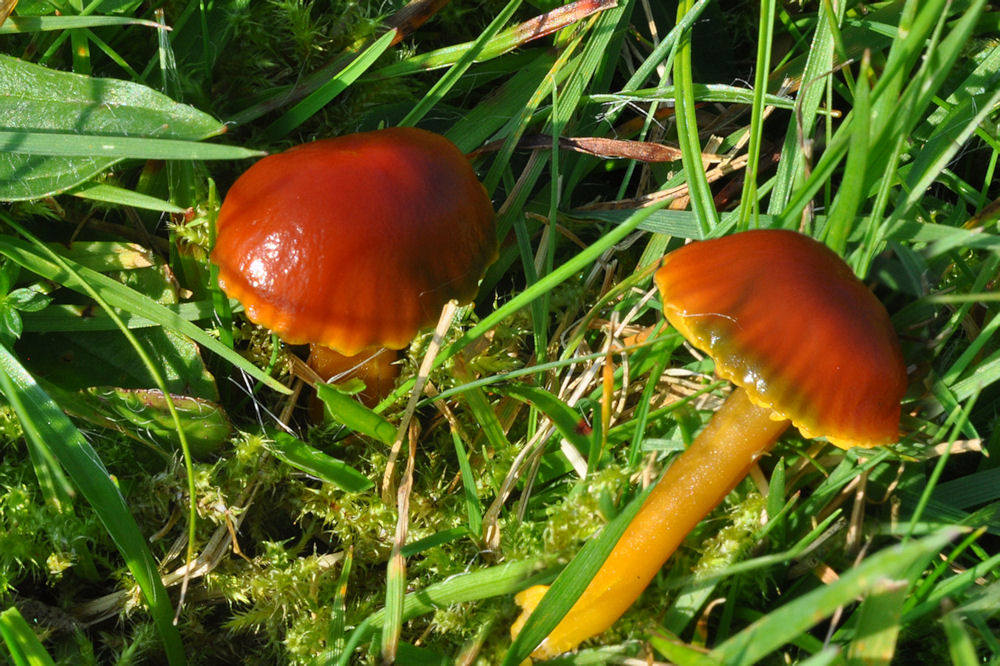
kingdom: Fungi
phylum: Basidiomycota
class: Agaricomycetes
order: Agaricales
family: Hygrophoraceae
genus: Gliophorus
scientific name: Gliophorus europerplexus
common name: Butterscotch waxcap
